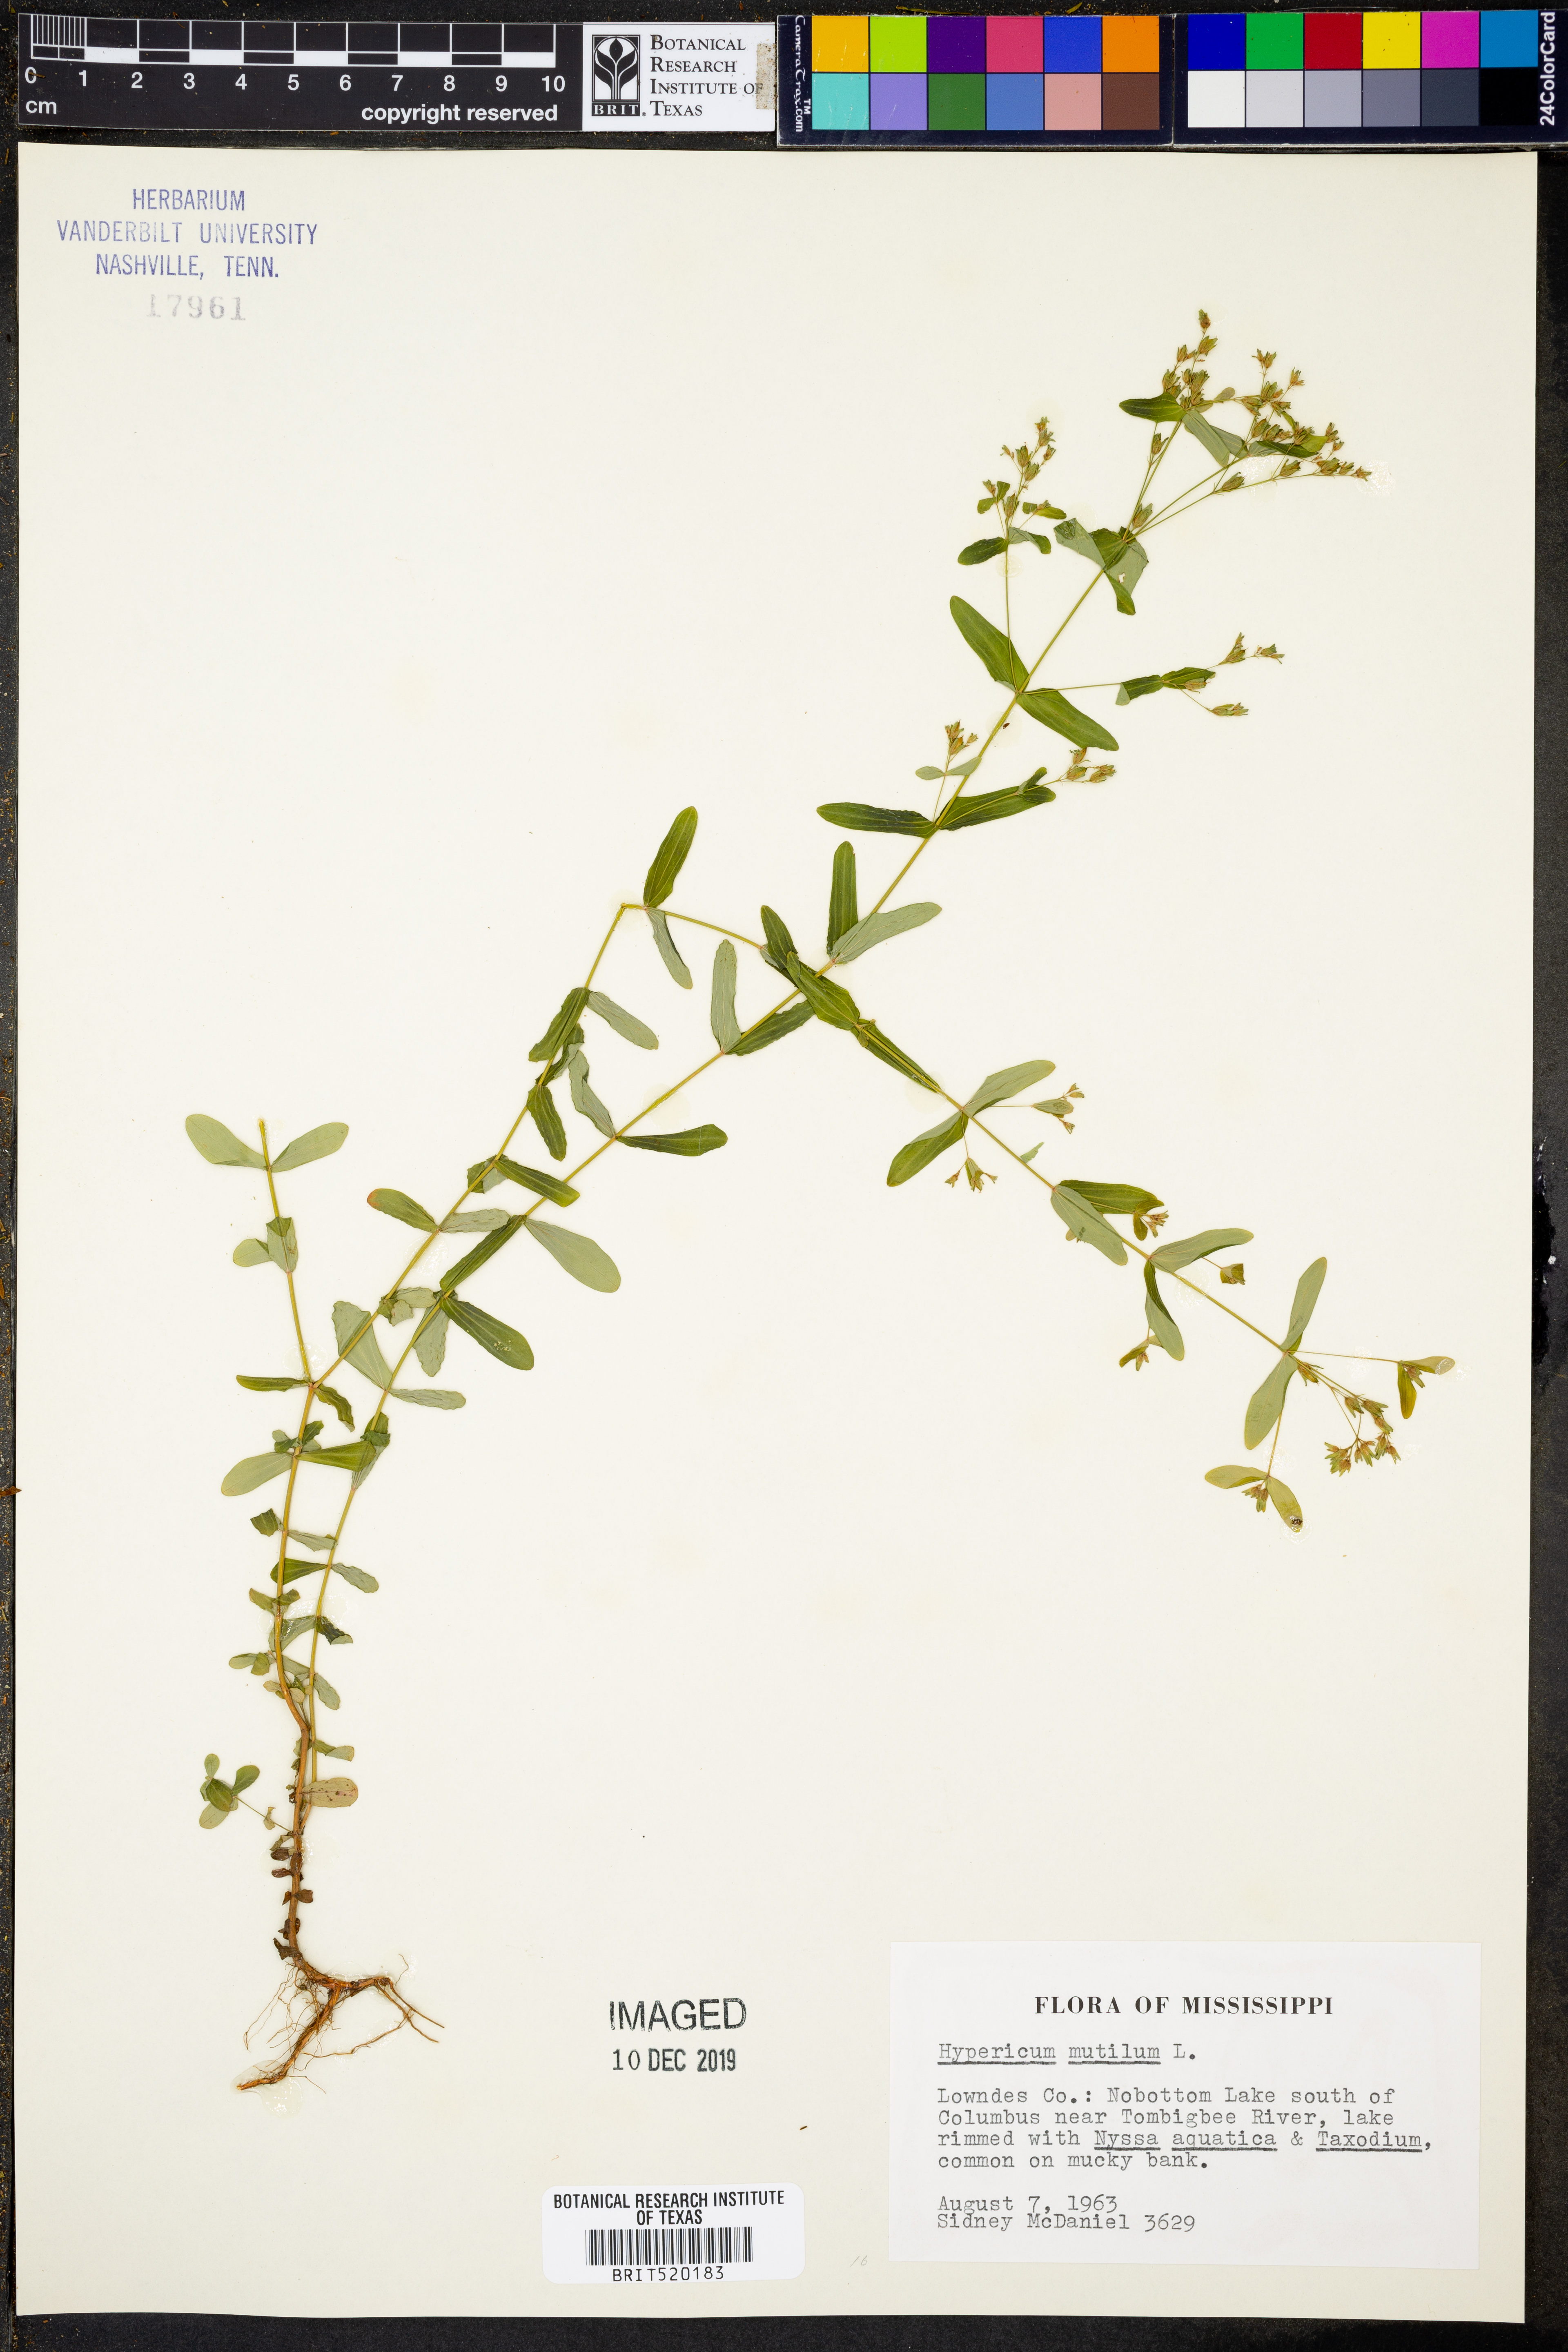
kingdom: Plantae
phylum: Tracheophyta
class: Magnoliopsida
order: Malpighiales
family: Hypericaceae
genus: Hypericum
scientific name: Hypericum mutilum
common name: Dwarf st. john's-wort
